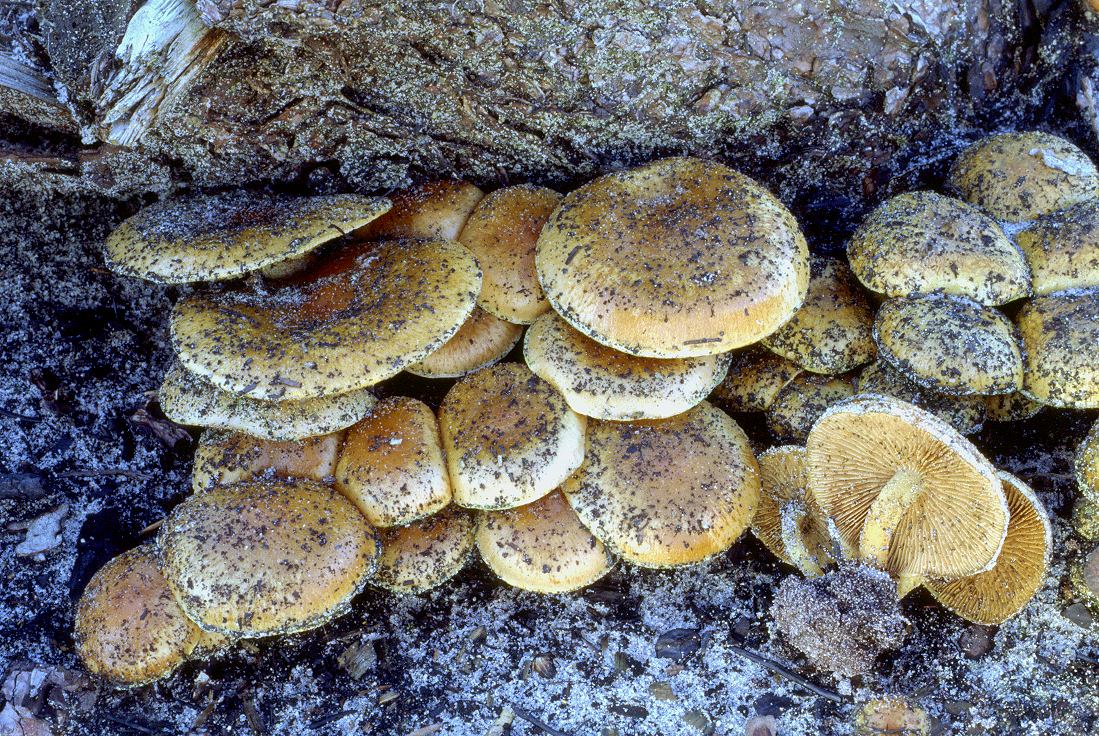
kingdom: Fungi
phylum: Basidiomycota
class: Agaricomycetes
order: Agaricales
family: Strophariaceae
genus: Pholiota
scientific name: Pholiota carbonaria
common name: kul-skælhat
